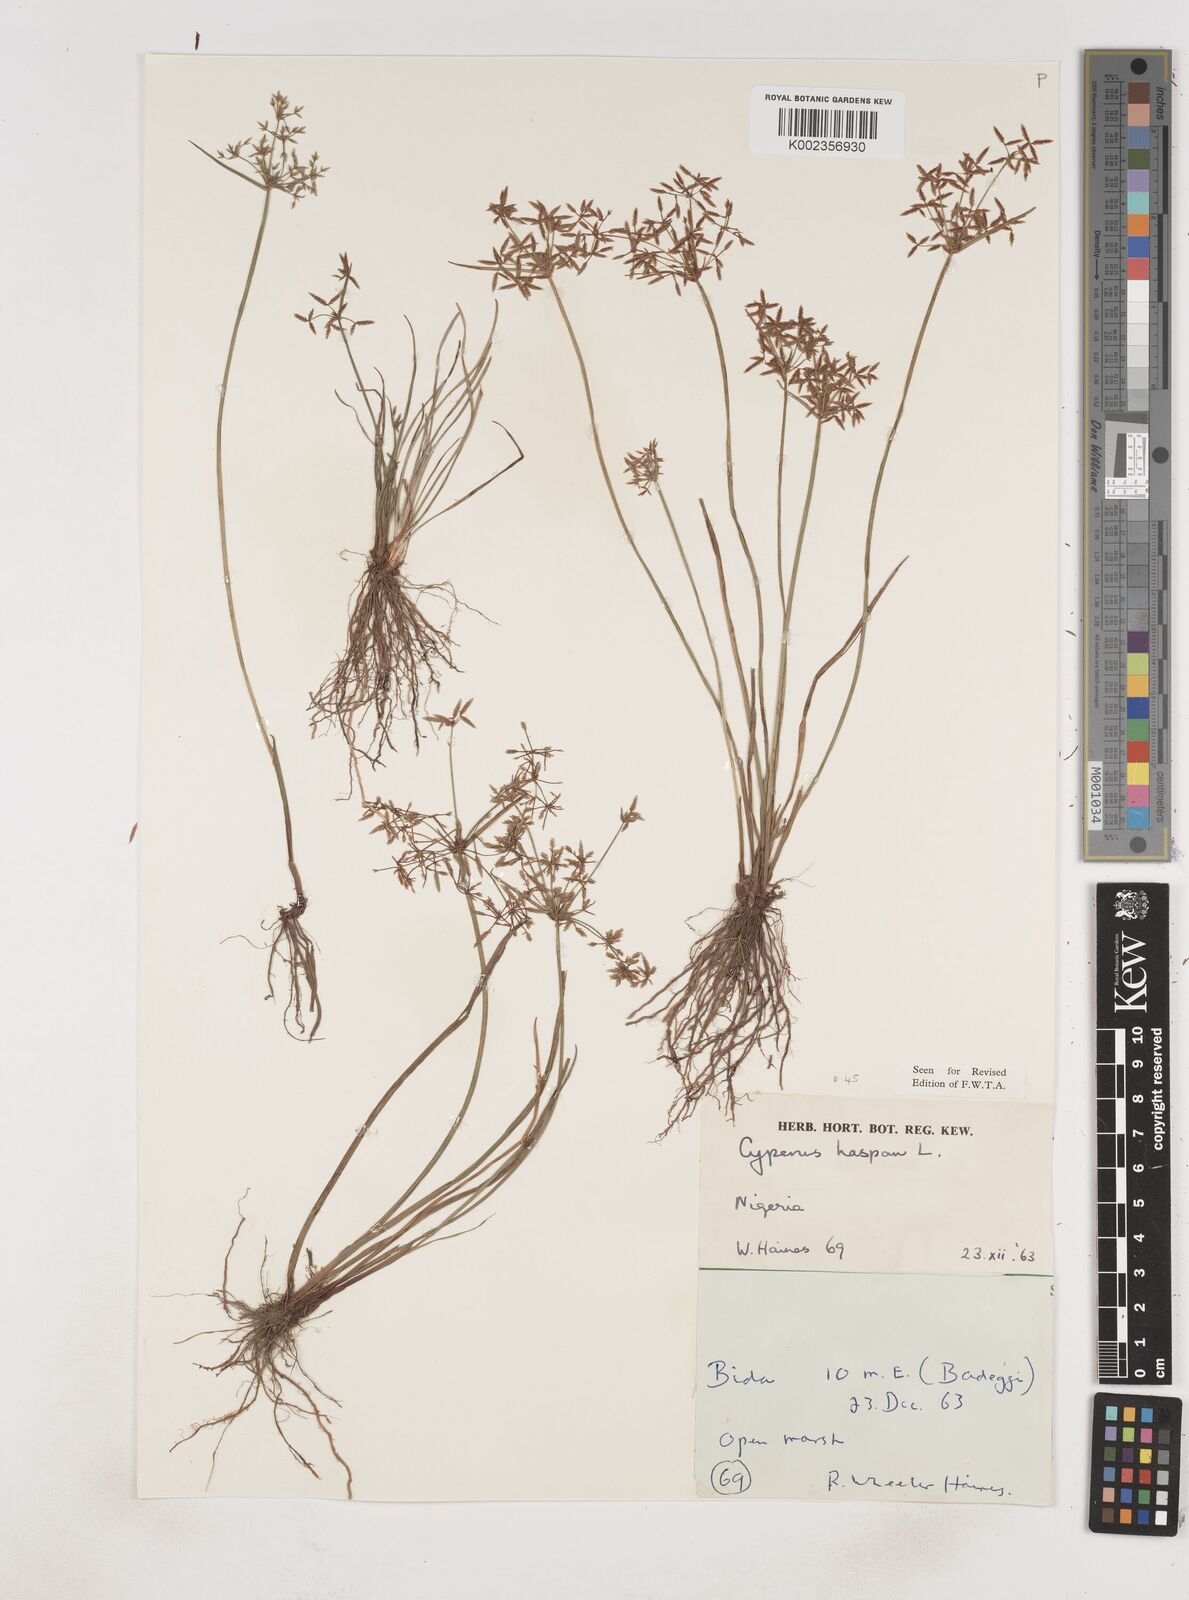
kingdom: Plantae
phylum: Tracheophyta
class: Liliopsida
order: Poales
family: Cyperaceae
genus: Cyperus
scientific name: Cyperus haspan
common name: Haspan flatsedge
